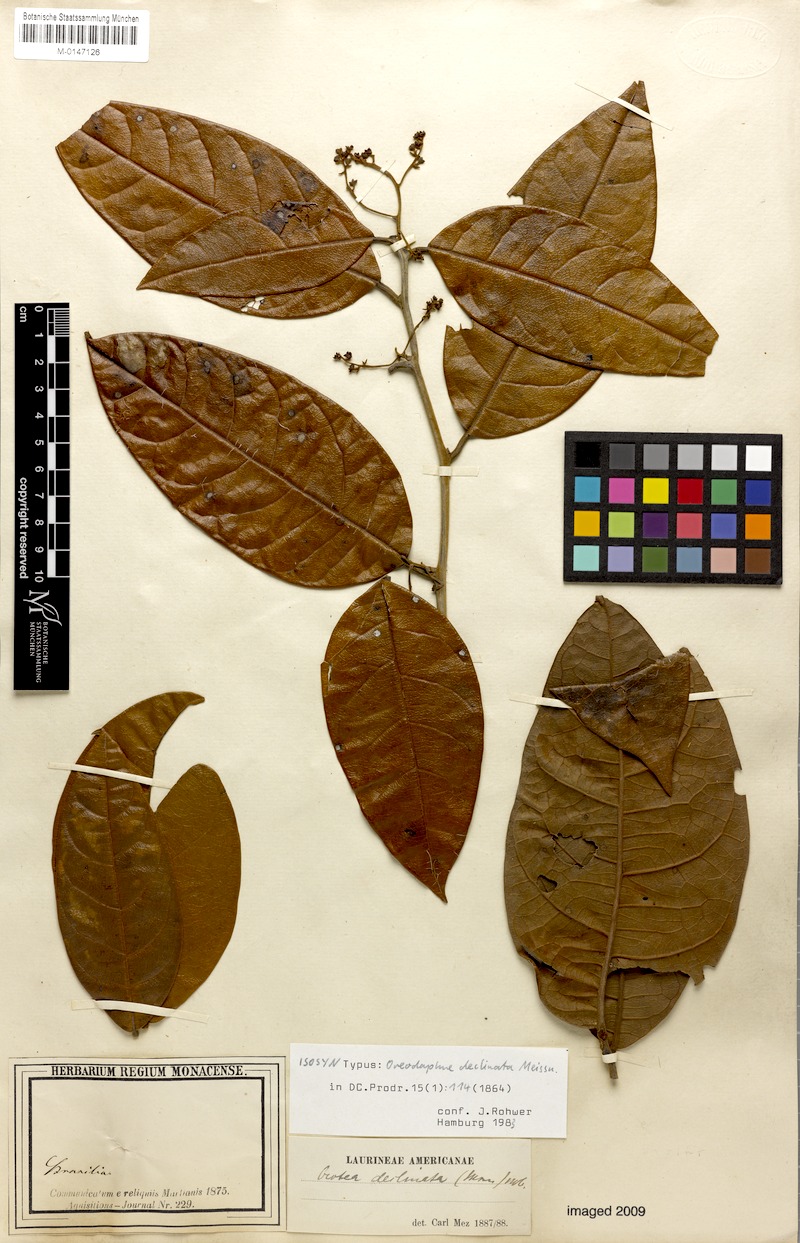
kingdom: Plantae
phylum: Tracheophyta
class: Magnoliopsida
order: Laurales
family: Lauraceae
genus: Ocotea
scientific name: Ocotea deflexa
